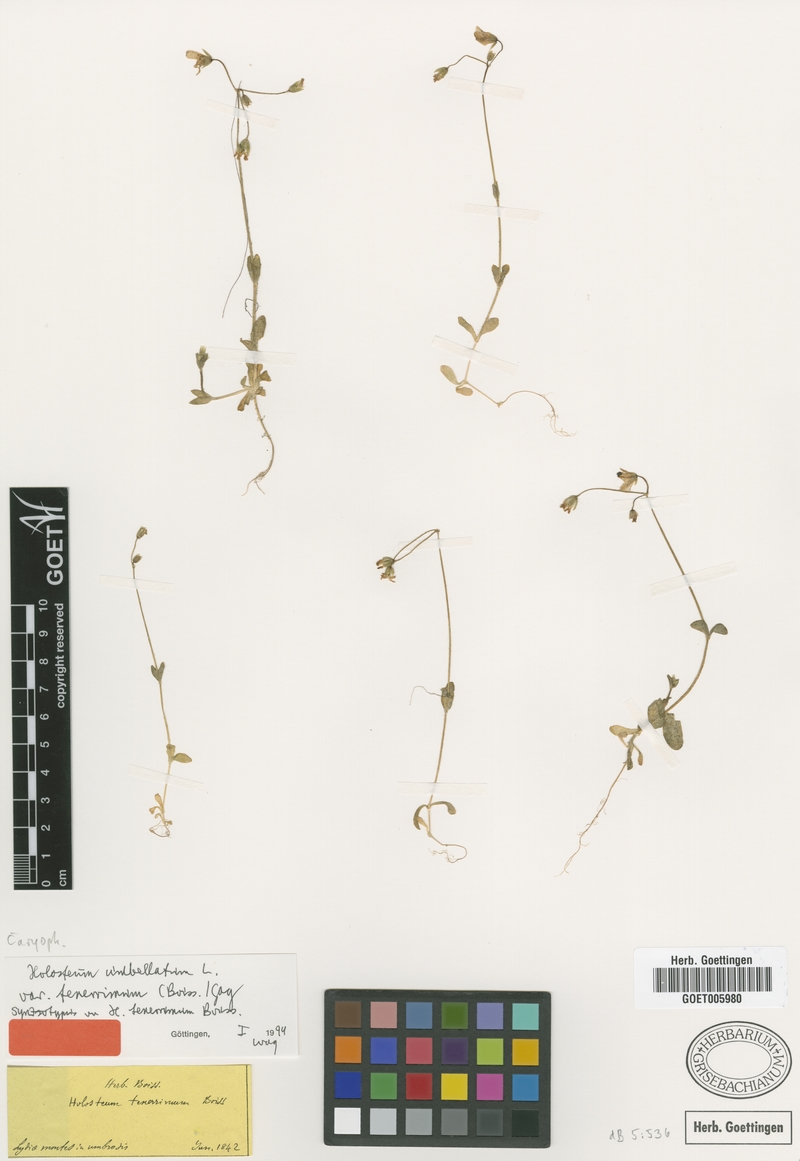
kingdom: Plantae
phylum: Tracheophyta
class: Magnoliopsida
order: Caryophyllales
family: Caryophyllaceae
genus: Holosteum
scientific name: Holosteum umbellatum
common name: Jagged chickweed
